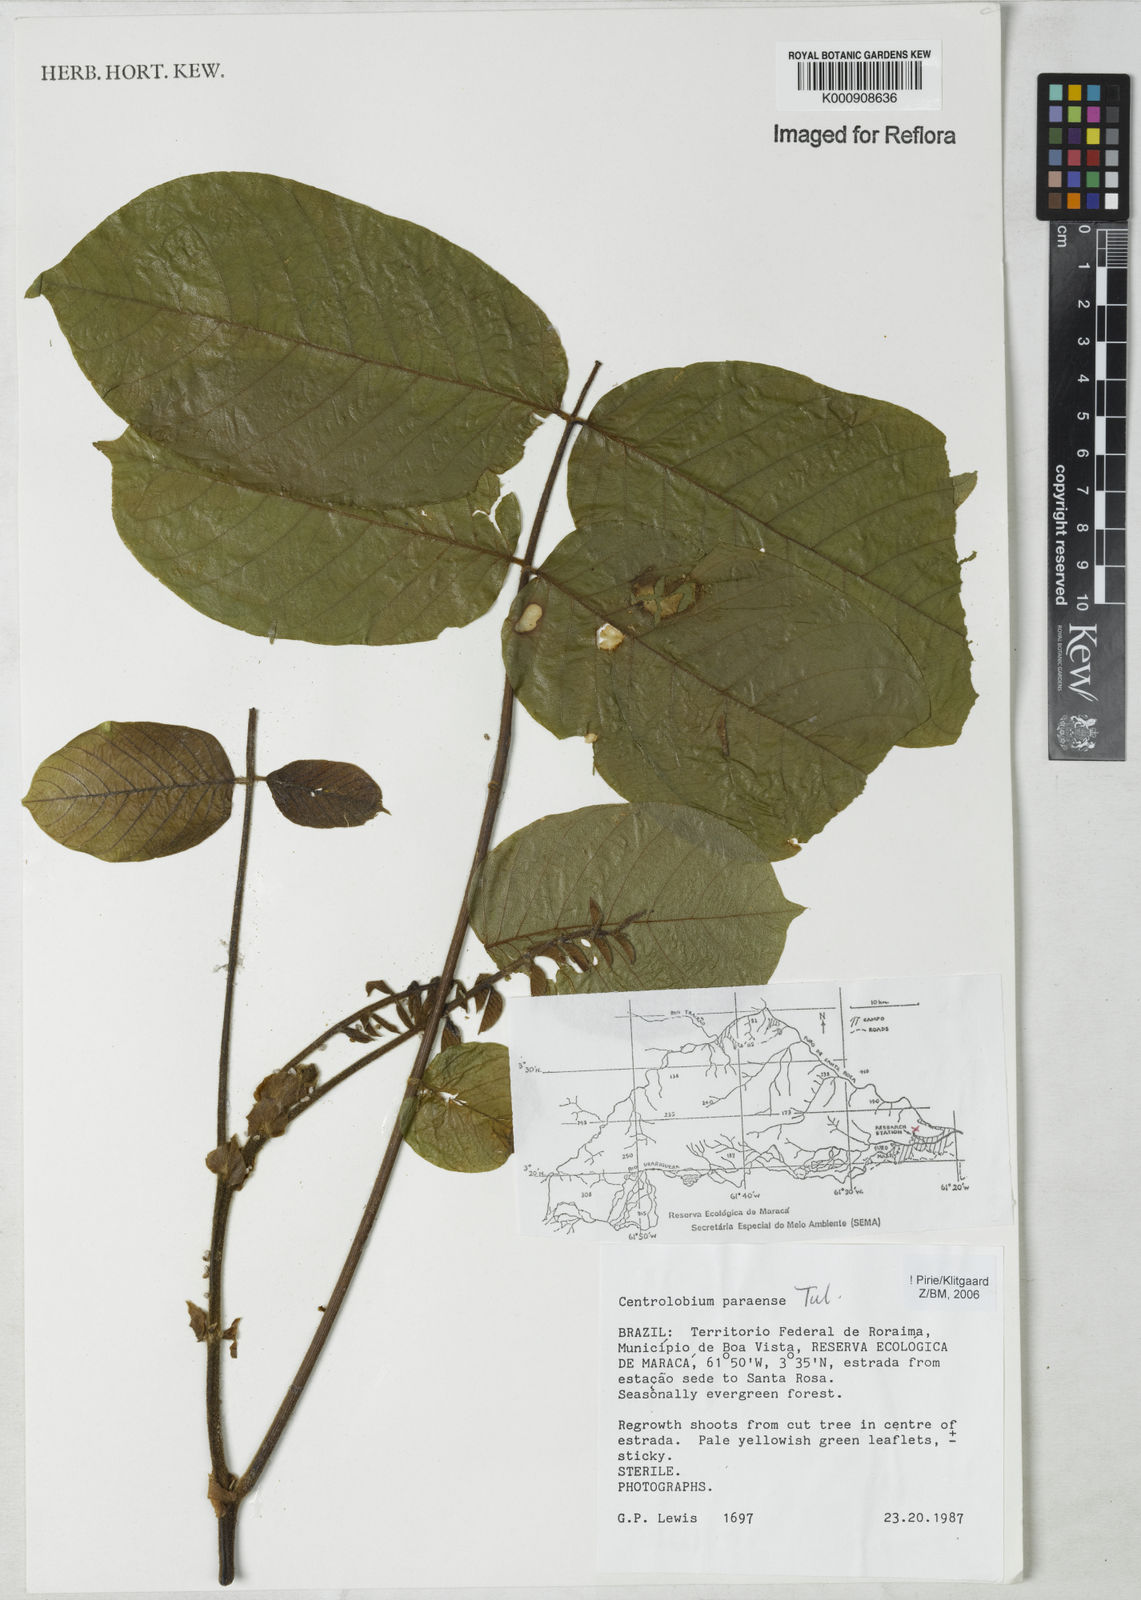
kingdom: Plantae
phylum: Tracheophyta
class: Magnoliopsida
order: Fabales
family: Fabaceae
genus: Centrolobium
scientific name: Centrolobium paraense
